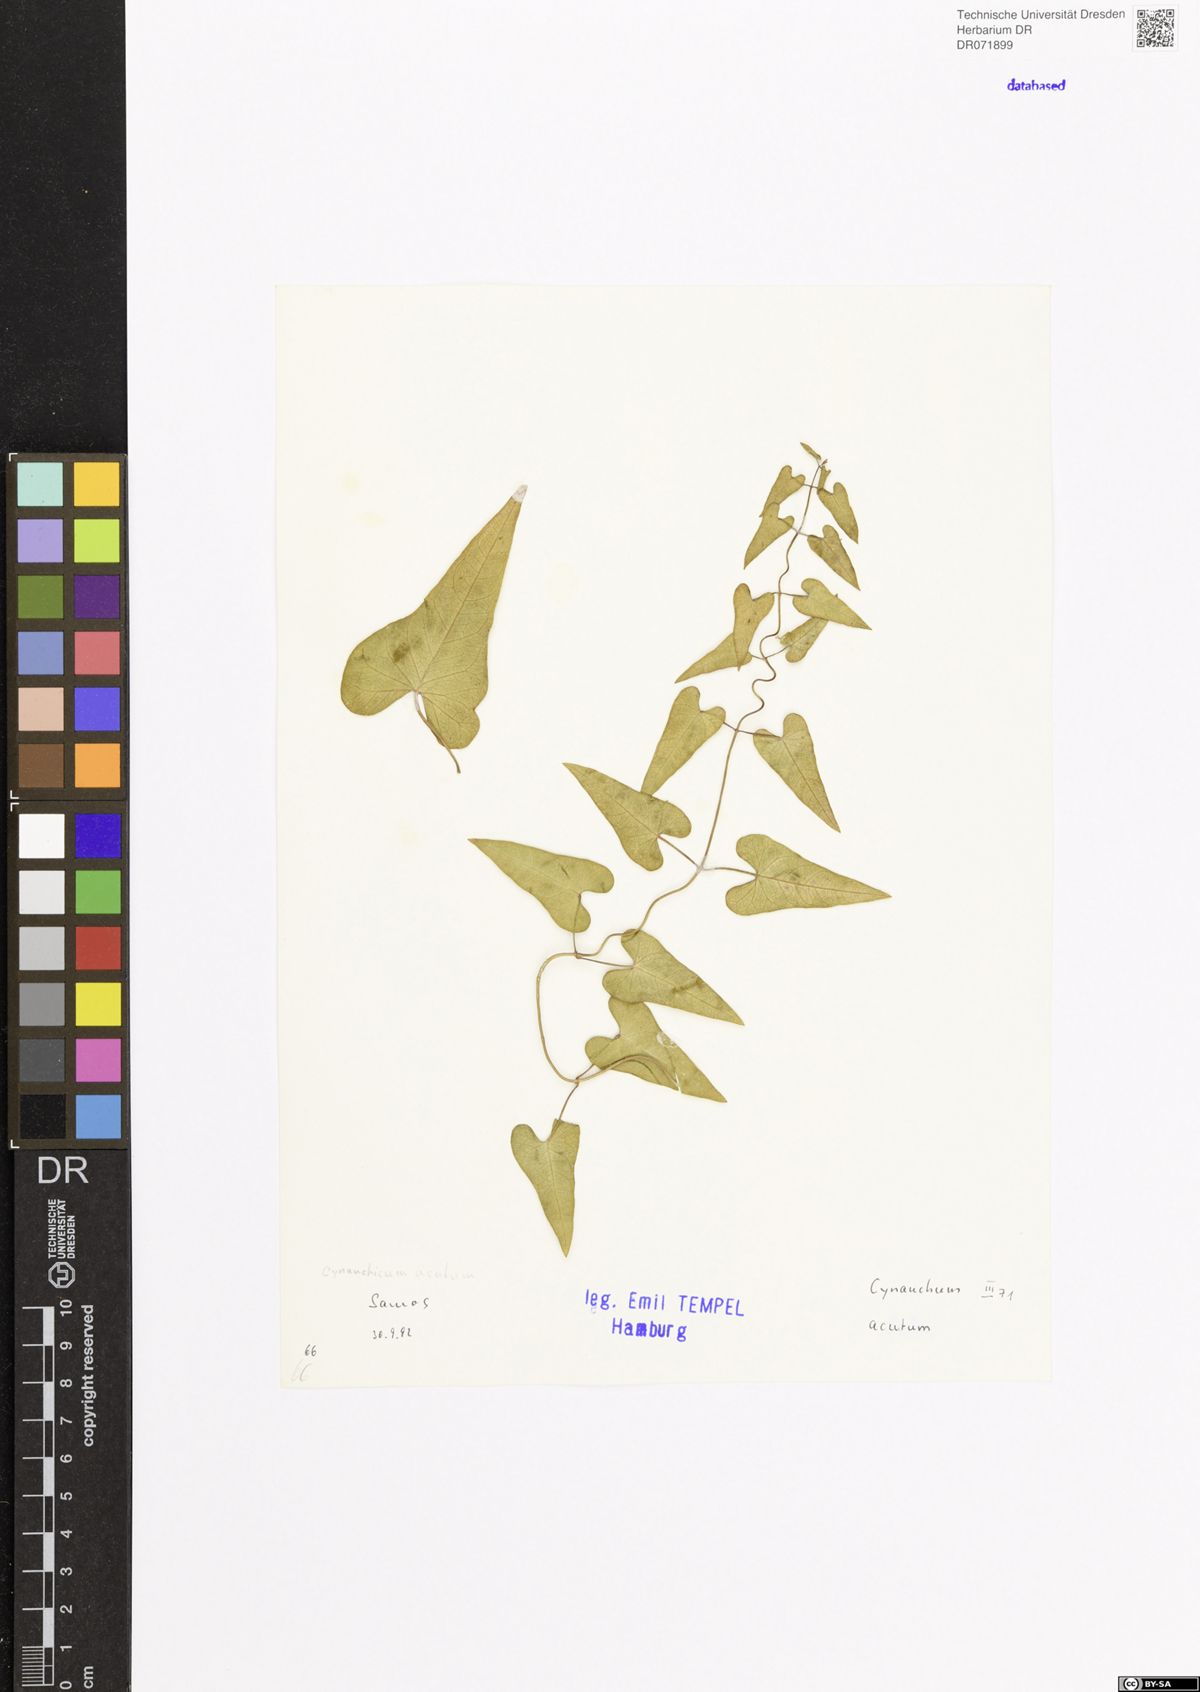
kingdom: Plantae
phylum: Tracheophyta
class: Magnoliopsida
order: Gentianales
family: Apocynaceae
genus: Cynanchum
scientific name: Cynanchum adalinae
